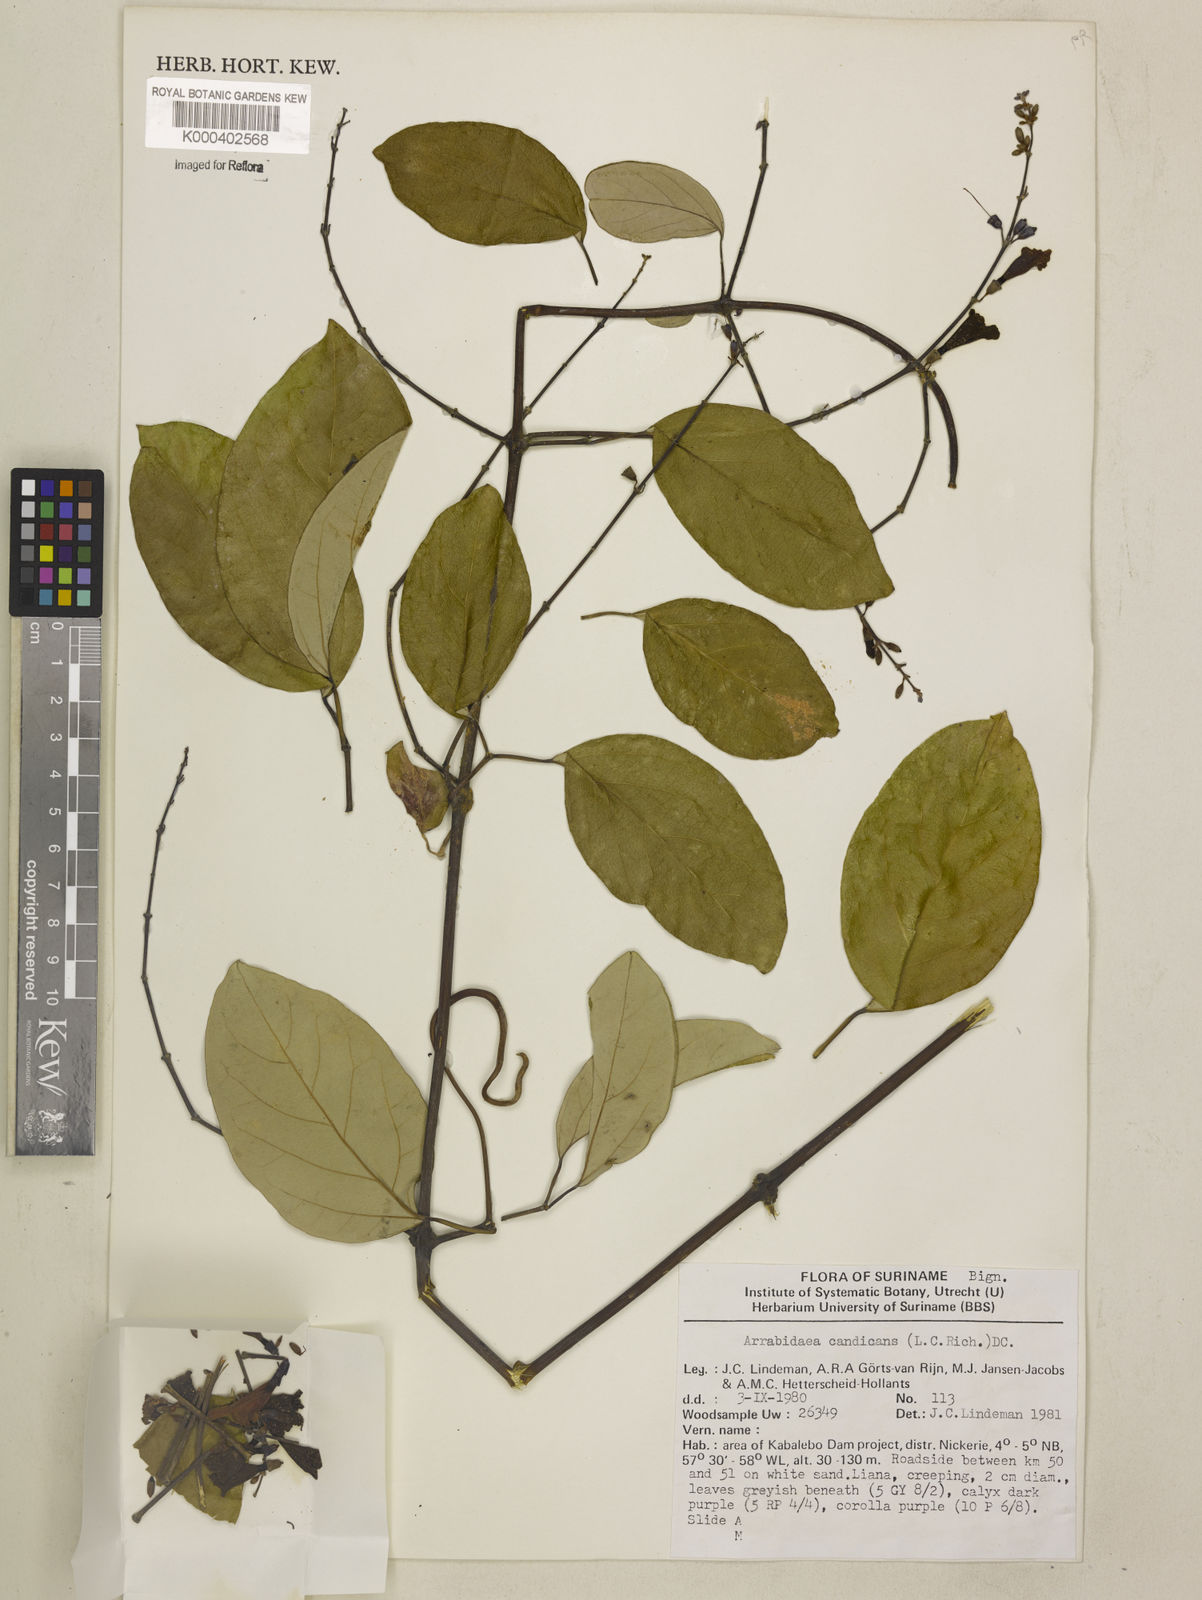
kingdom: Plantae
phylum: Tracheophyta
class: Magnoliopsida
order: Lamiales
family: Bignoniaceae
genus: Fridericia
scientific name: Fridericia candicans
